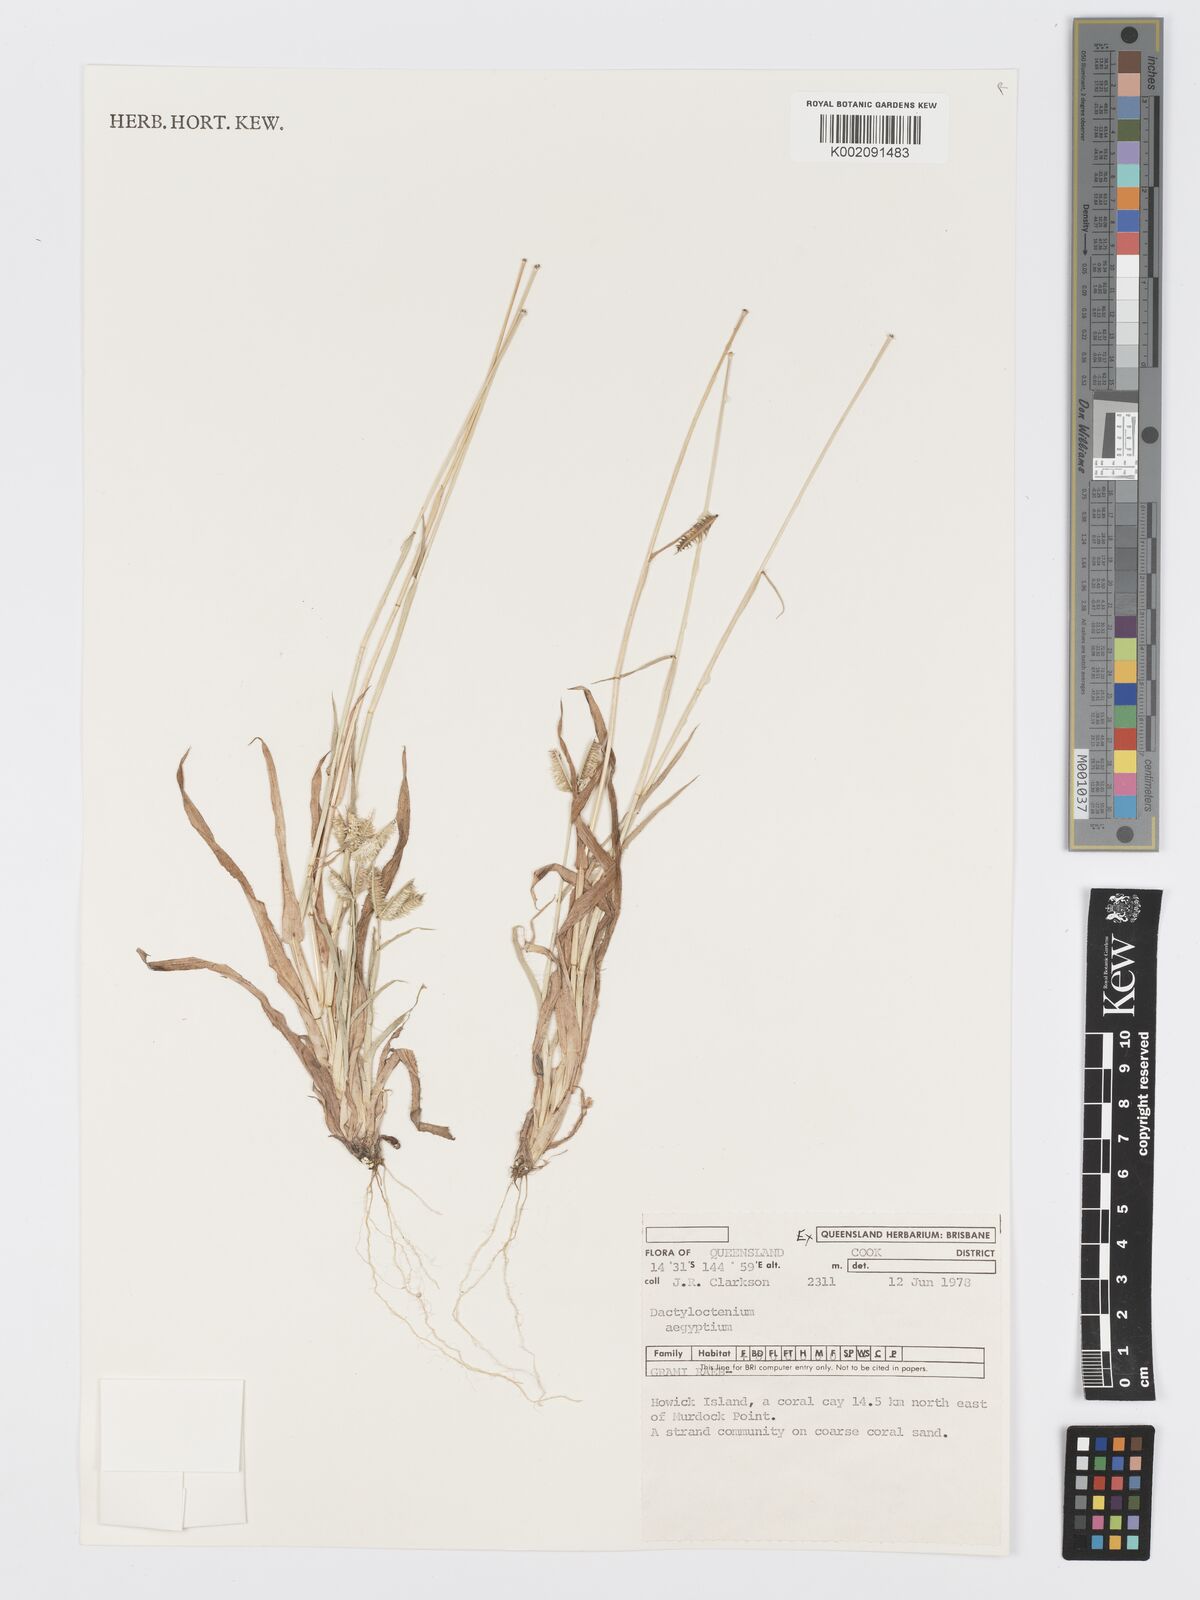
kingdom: Plantae
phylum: Tracheophyta
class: Liliopsida
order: Poales
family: Poaceae
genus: Dactyloctenium
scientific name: Dactyloctenium aegyptium
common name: Egyptian grass
